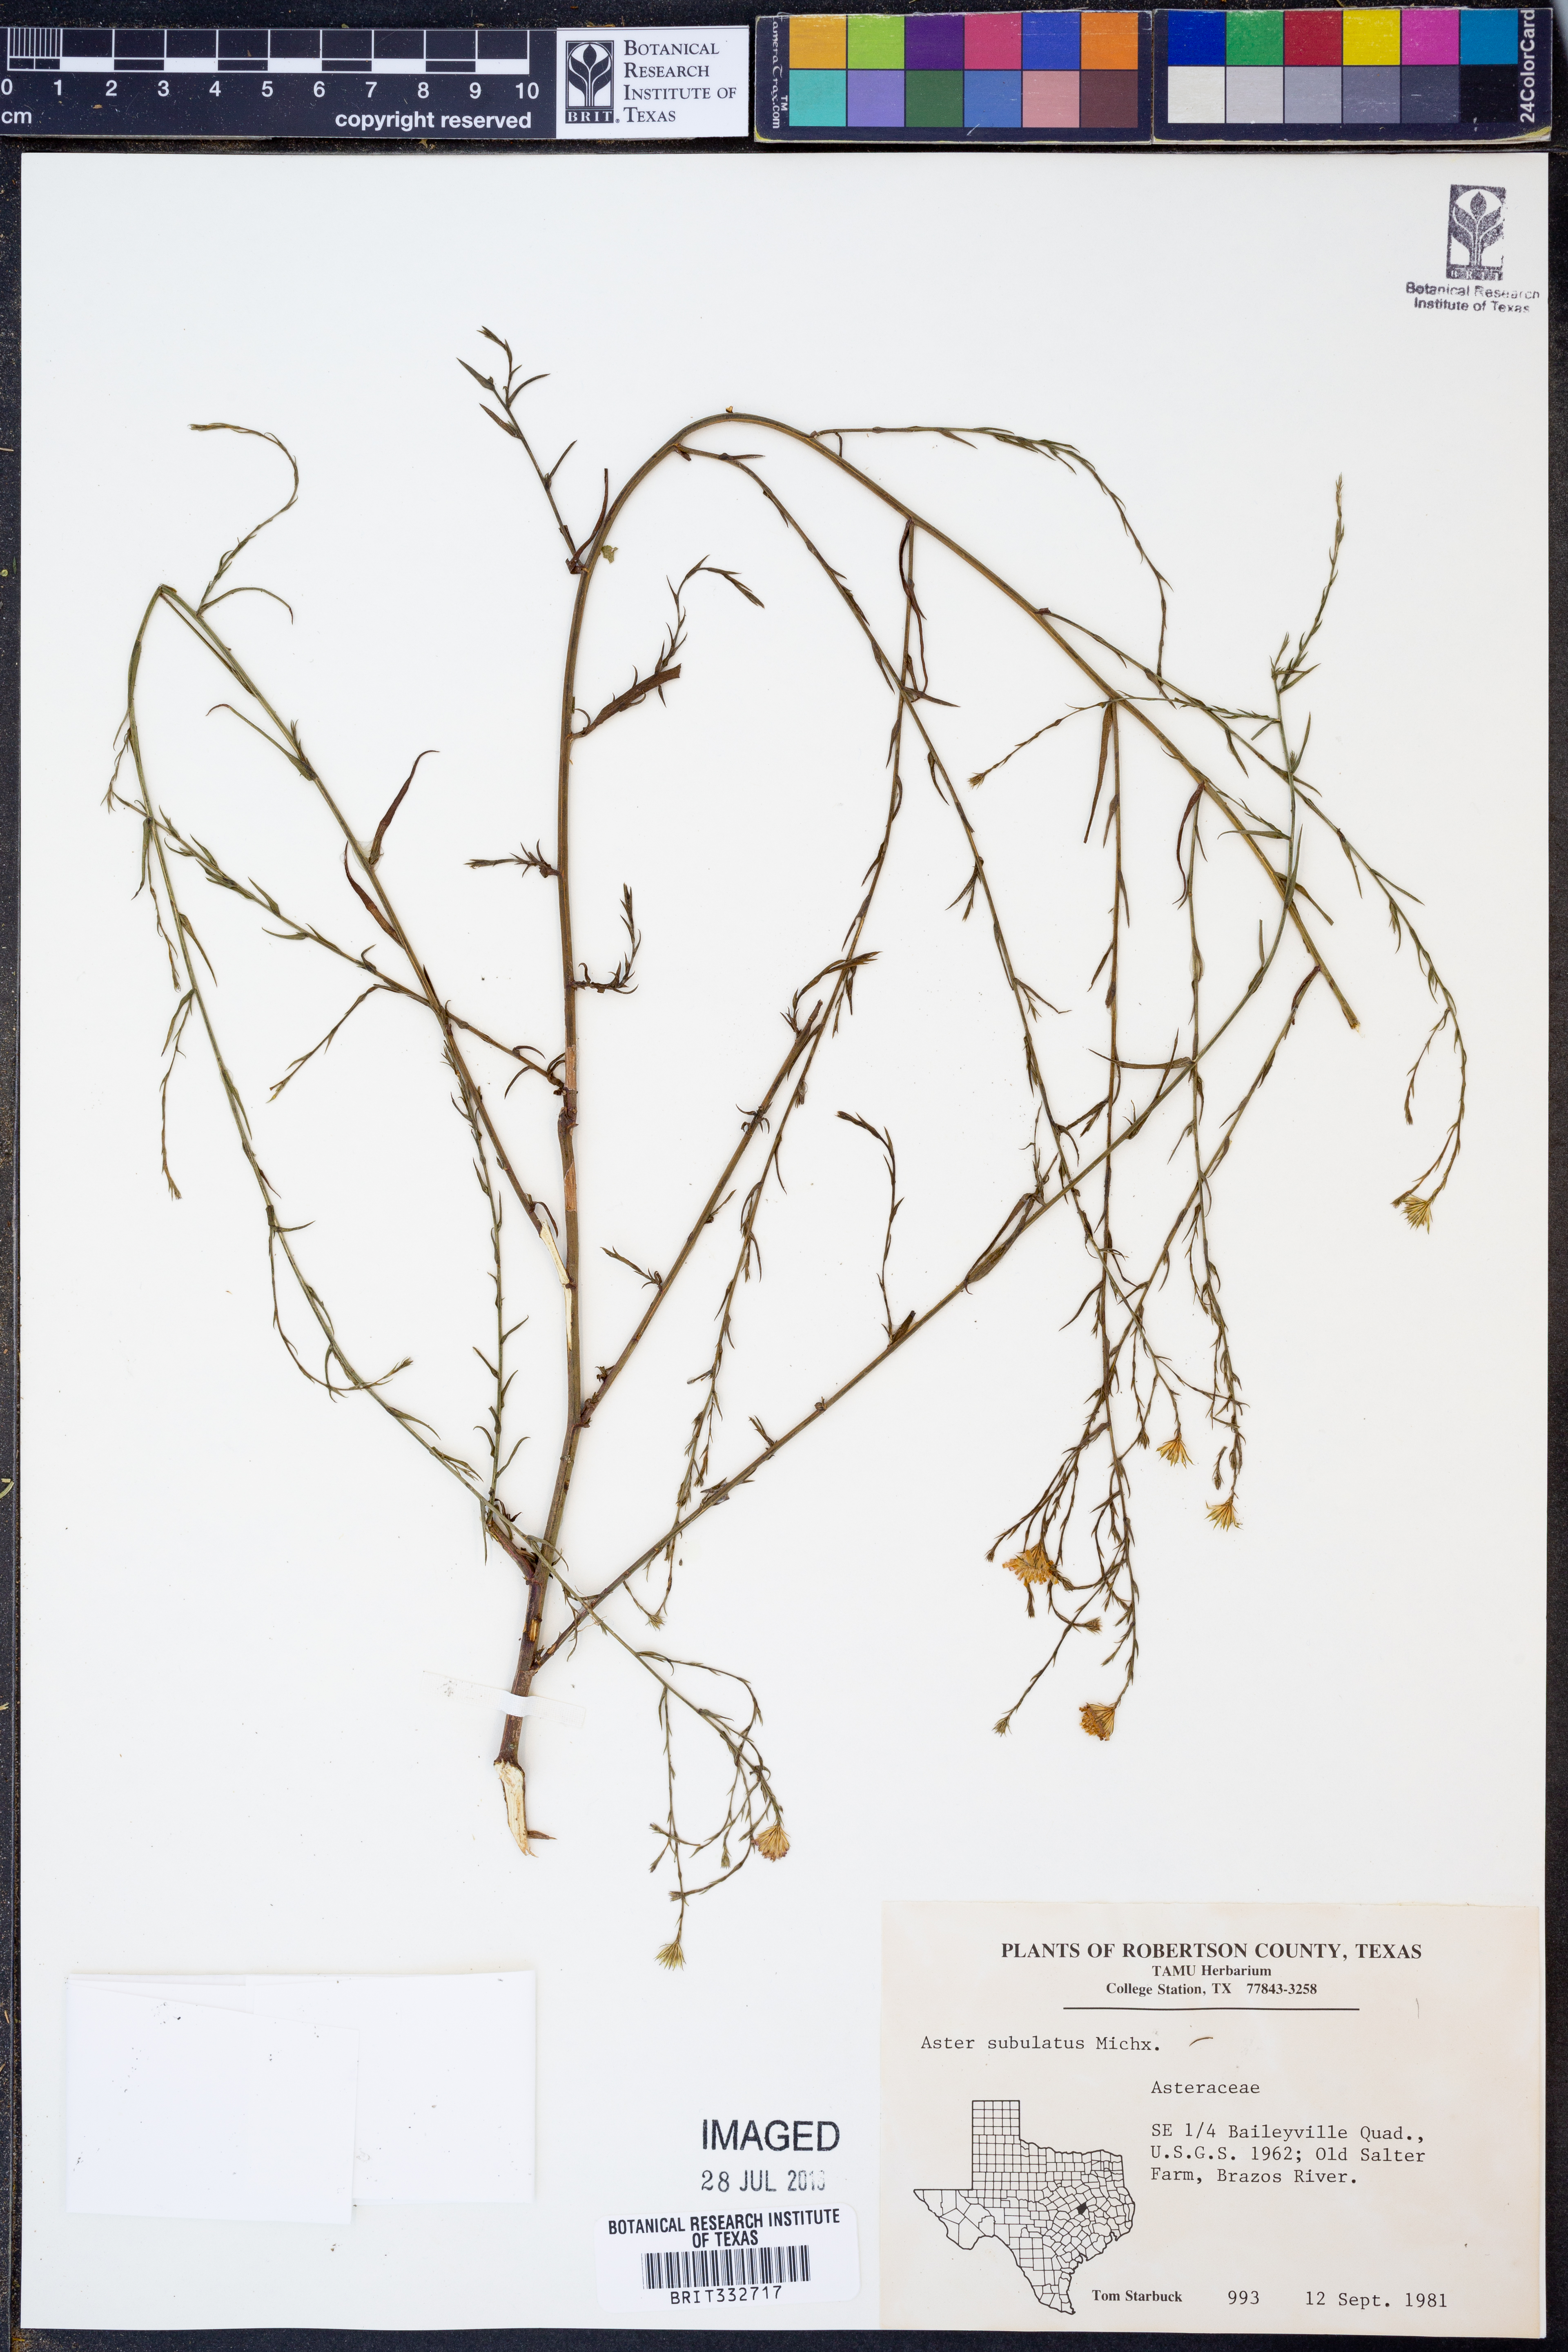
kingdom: Plantae
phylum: Tracheophyta
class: Magnoliopsida
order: Asterales
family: Asteraceae
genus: Symphyotrichum
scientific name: Symphyotrichum subulatum
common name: Annual saltmarsh aster
